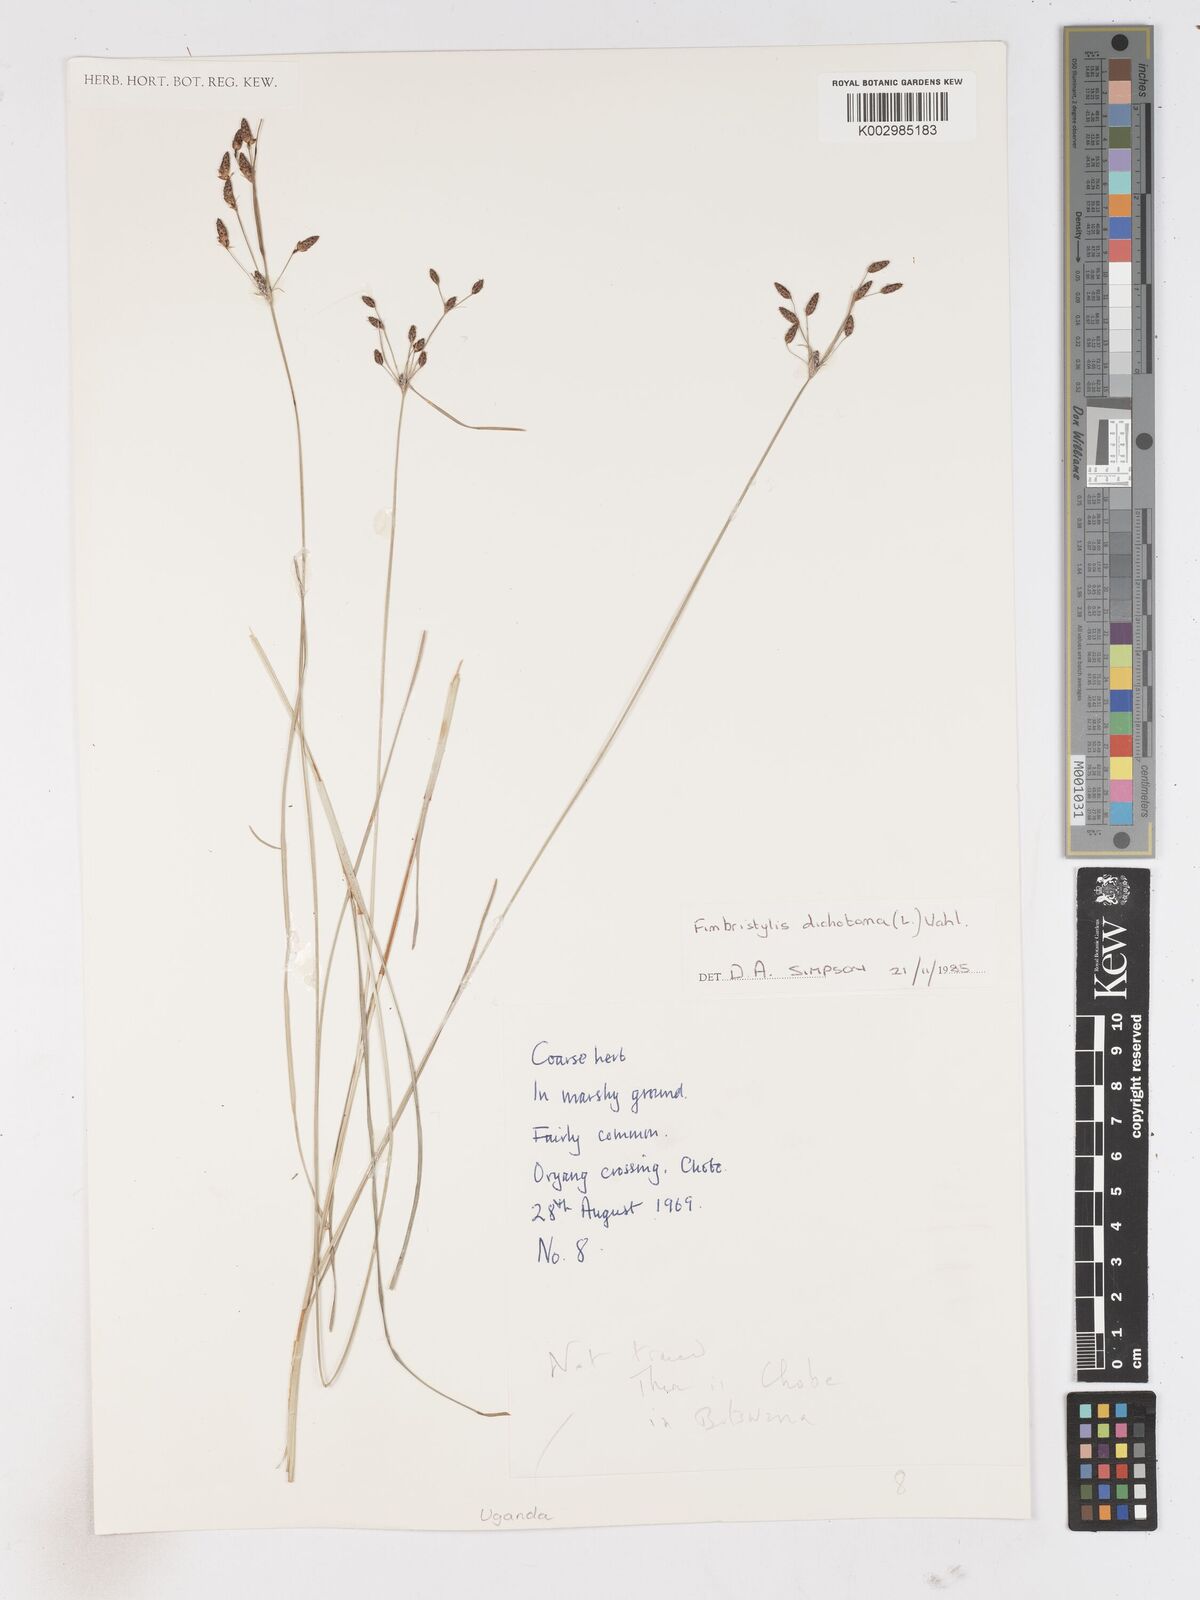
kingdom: Plantae
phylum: Tracheophyta
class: Liliopsida
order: Poales
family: Cyperaceae
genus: Fimbristylis
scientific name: Fimbristylis dichotoma
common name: Forked fimbry
